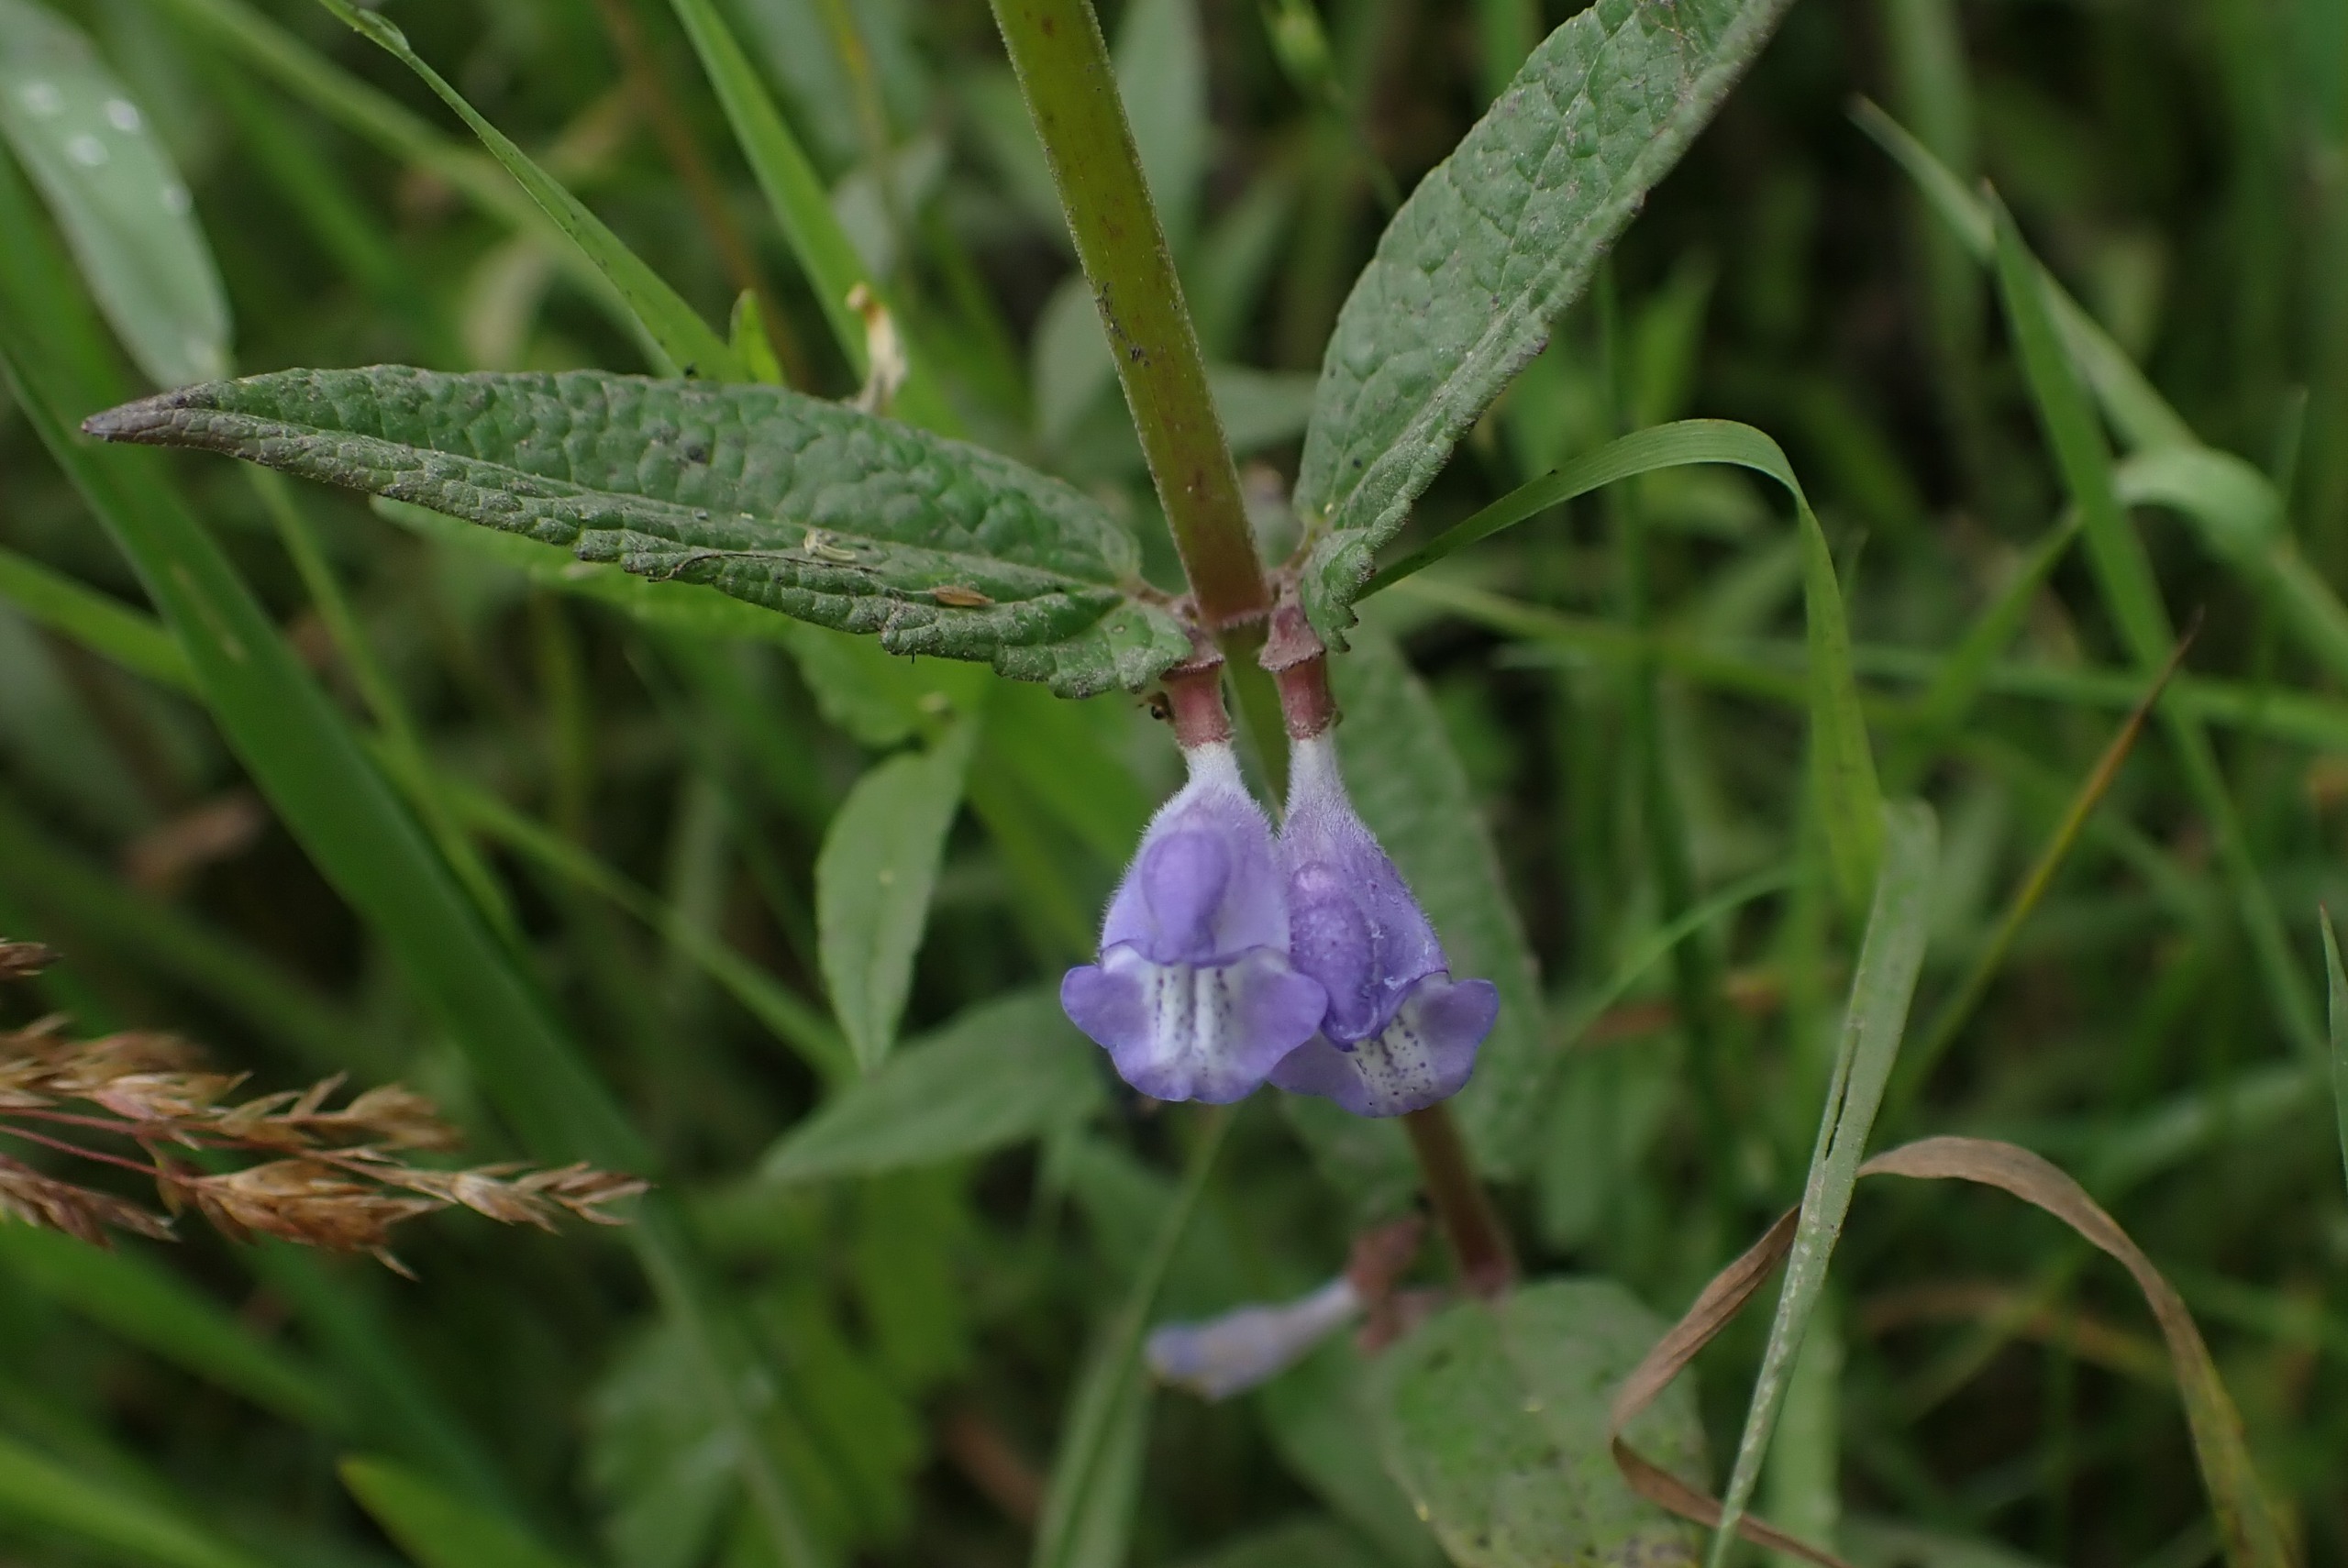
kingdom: Plantae
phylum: Tracheophyta
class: Magnoliopsida
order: Lamiales
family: Lamiaceae
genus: Scutellaria
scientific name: Scutellaria galericulata
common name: Almindelig skjolddrager
